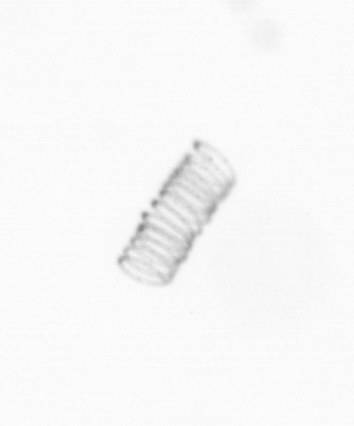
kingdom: Chromista
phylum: Ochrophyta
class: Bacillariophyceae
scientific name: Bacillariophyceae
